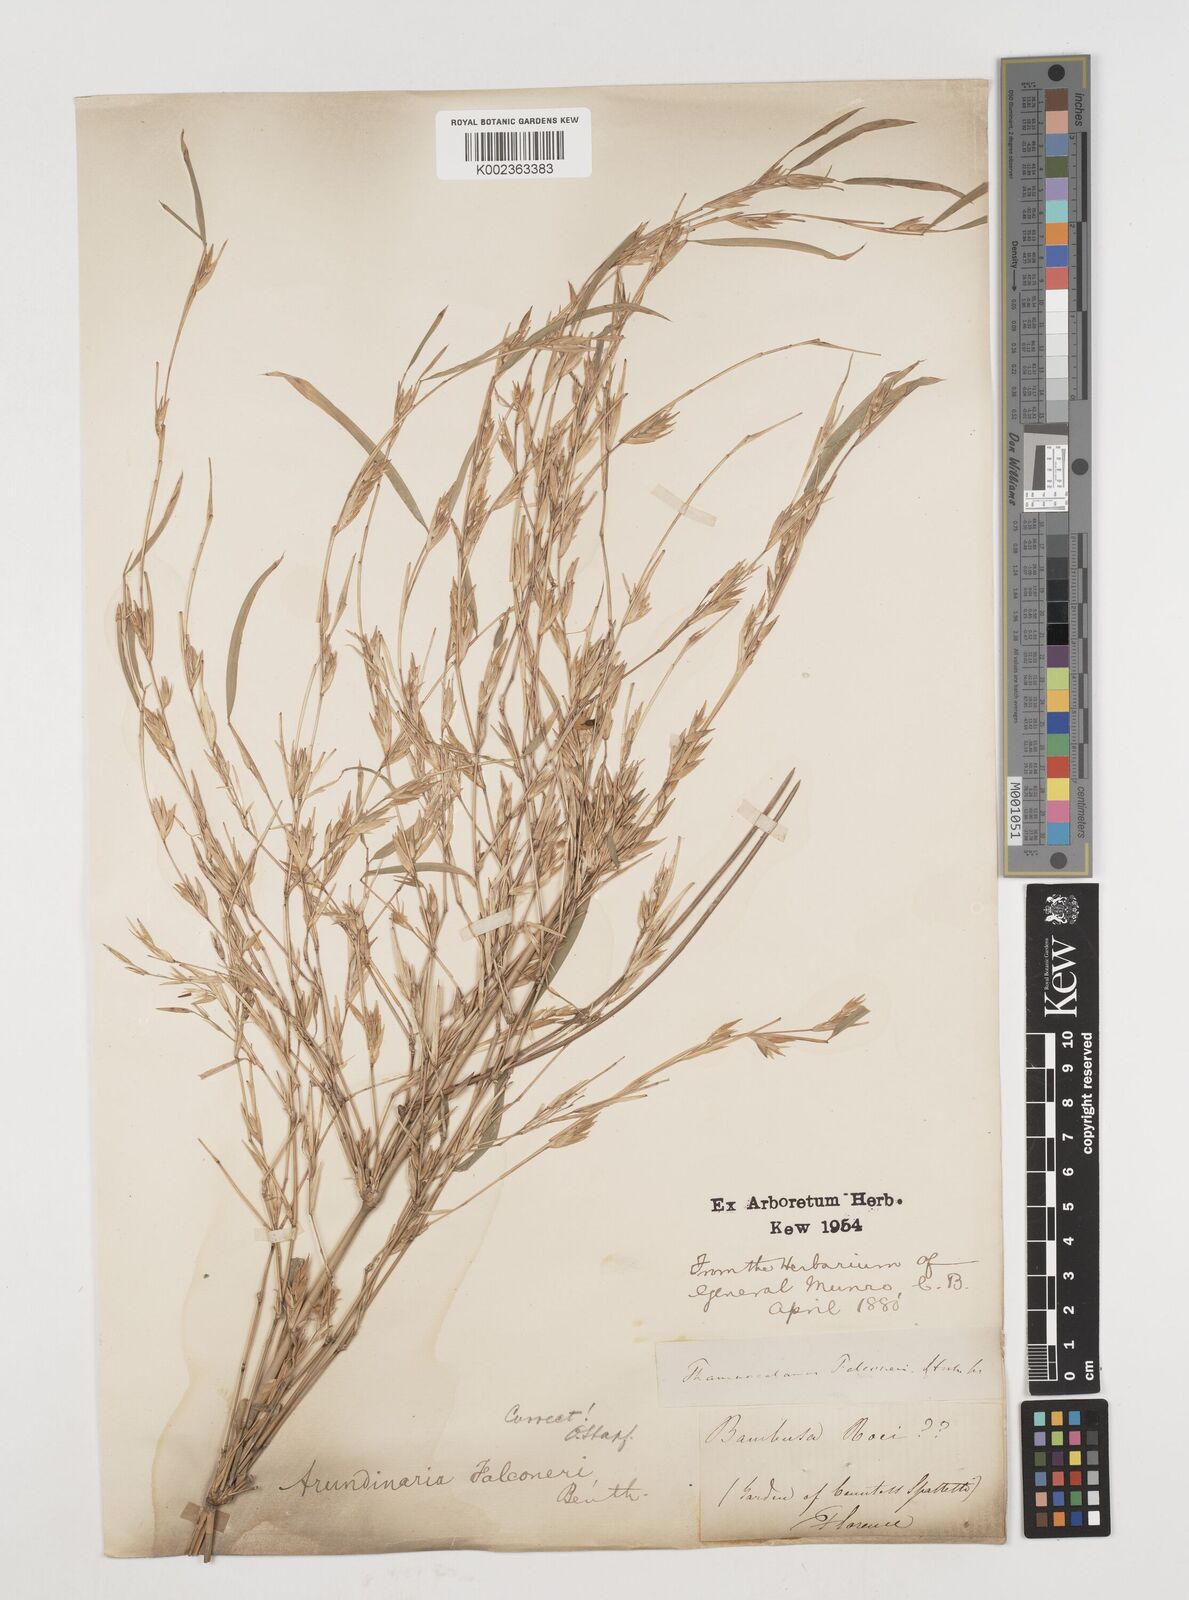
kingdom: Plantae
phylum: Tracheophyta
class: Liliopsida
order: Poales
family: Poaceae
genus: Himalayacalamus
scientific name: Himalayacalamus falconeri
